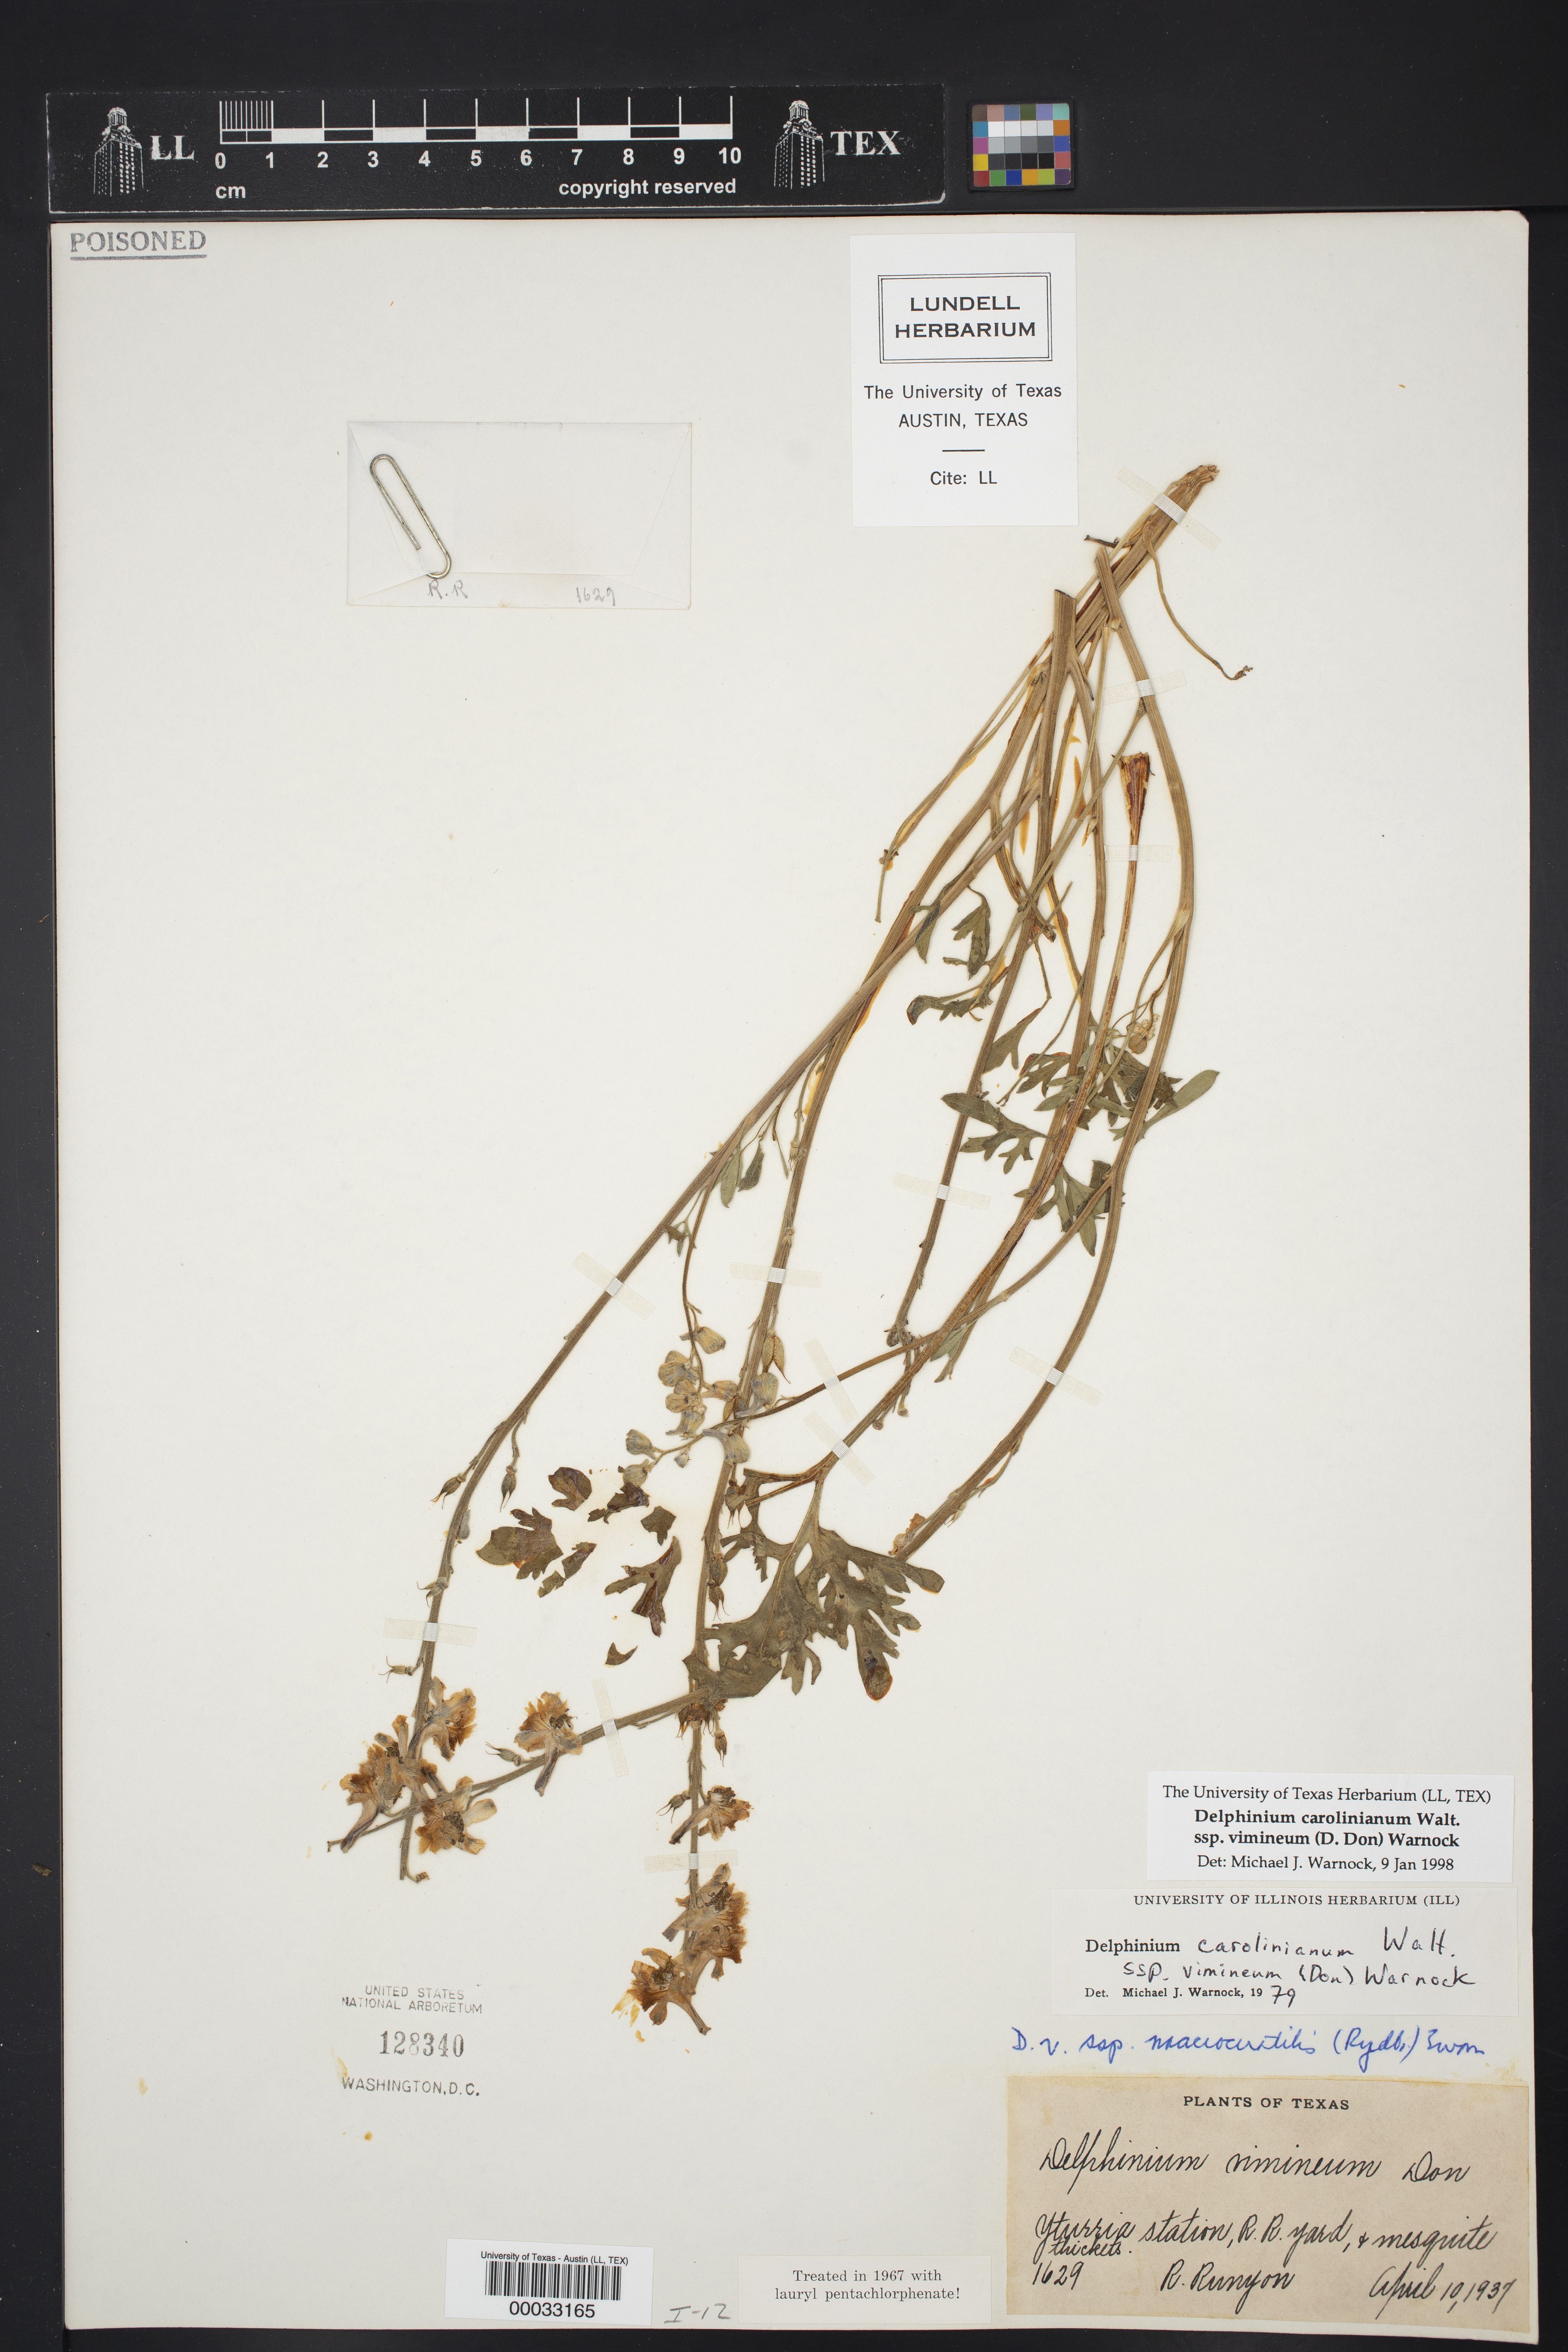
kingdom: Plantae
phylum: Tracheophyta
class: Magnoliopsida
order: Ranunculales
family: Ranunculaceae
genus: Delphinium
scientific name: Delphinium carolinianum
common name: Carolina larkspur
